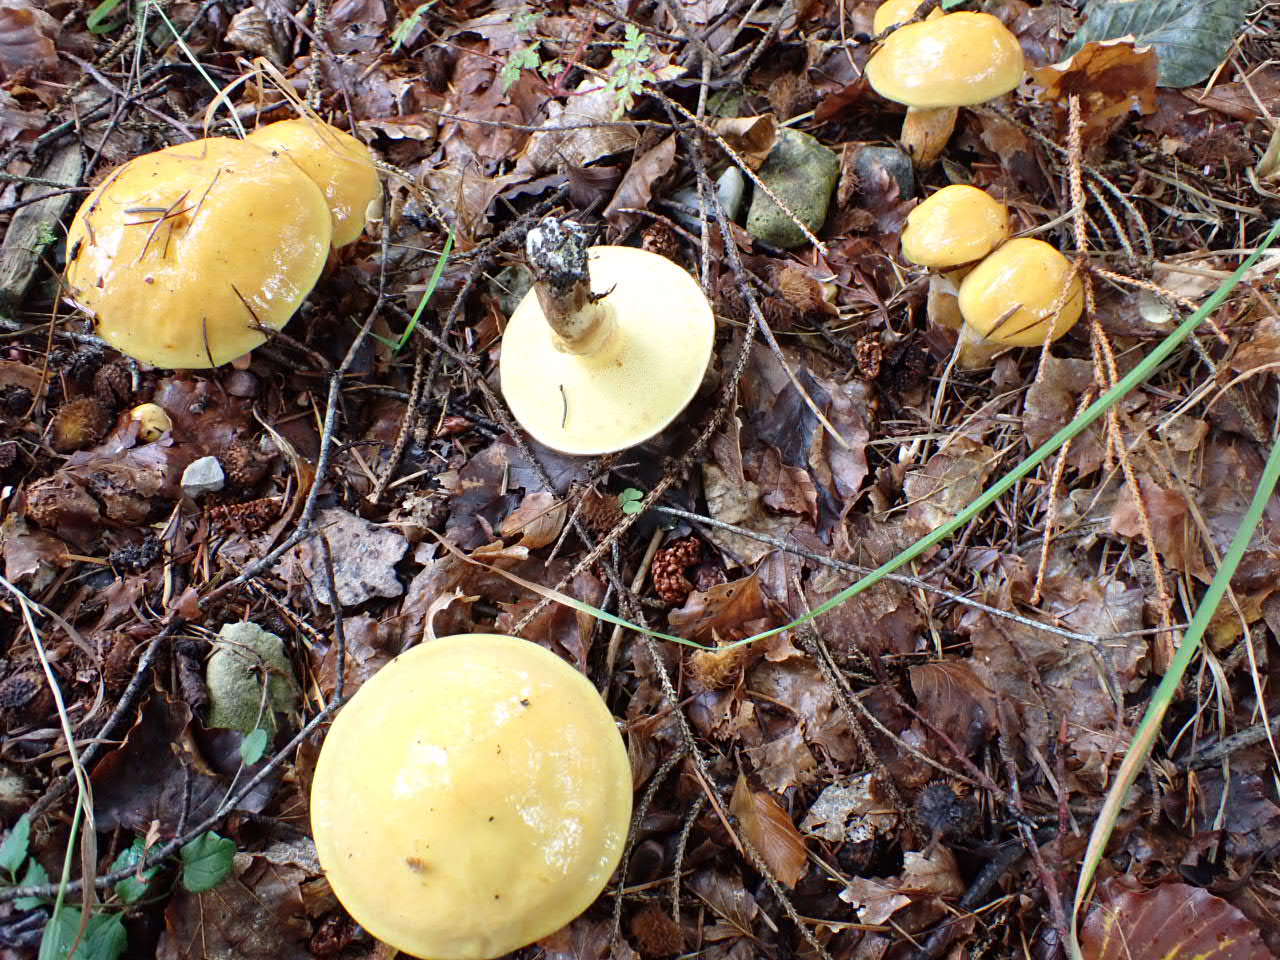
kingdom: Fungi
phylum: Basidiomycota
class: Agaricomycetes
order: Boletales
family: Suillaceae
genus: Suillus
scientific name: Suillus grevillei
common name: lærke-slimrørhat
